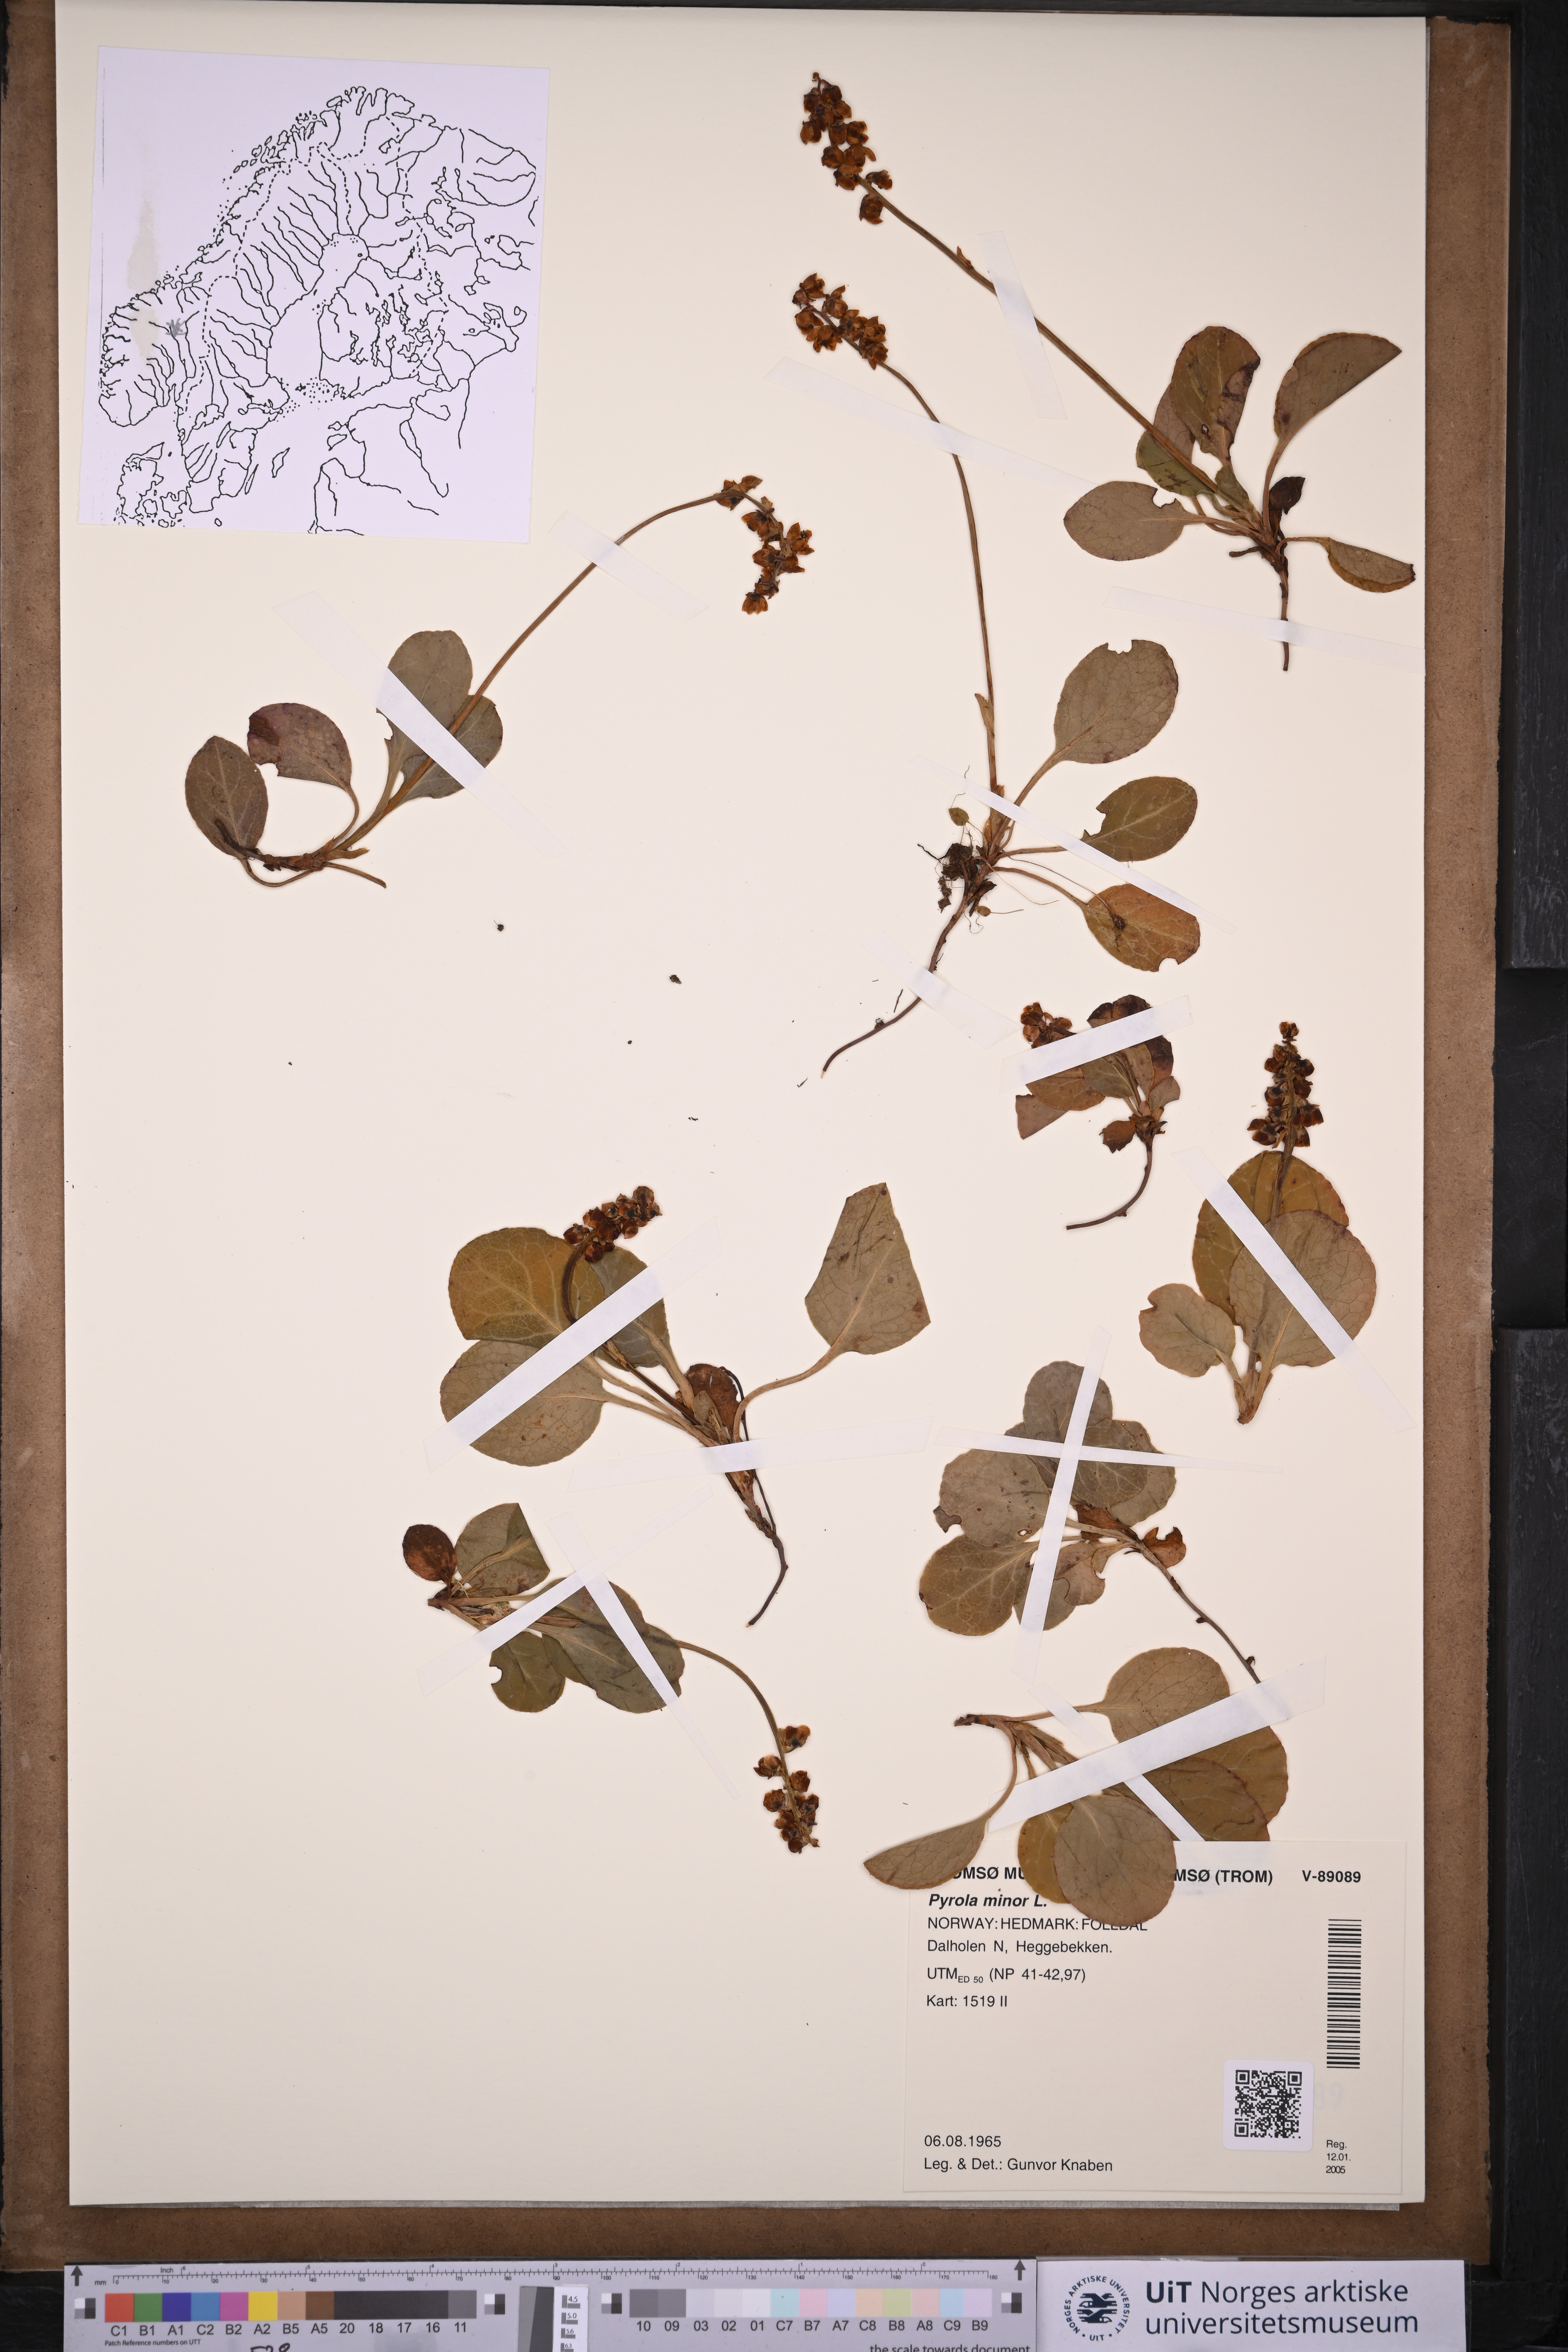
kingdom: Plantae
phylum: Tracheophyta
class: Magnoliopsida
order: Ericales
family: Ericaceae
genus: Pyrola
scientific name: Pyrola minor
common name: Common wintergreen
